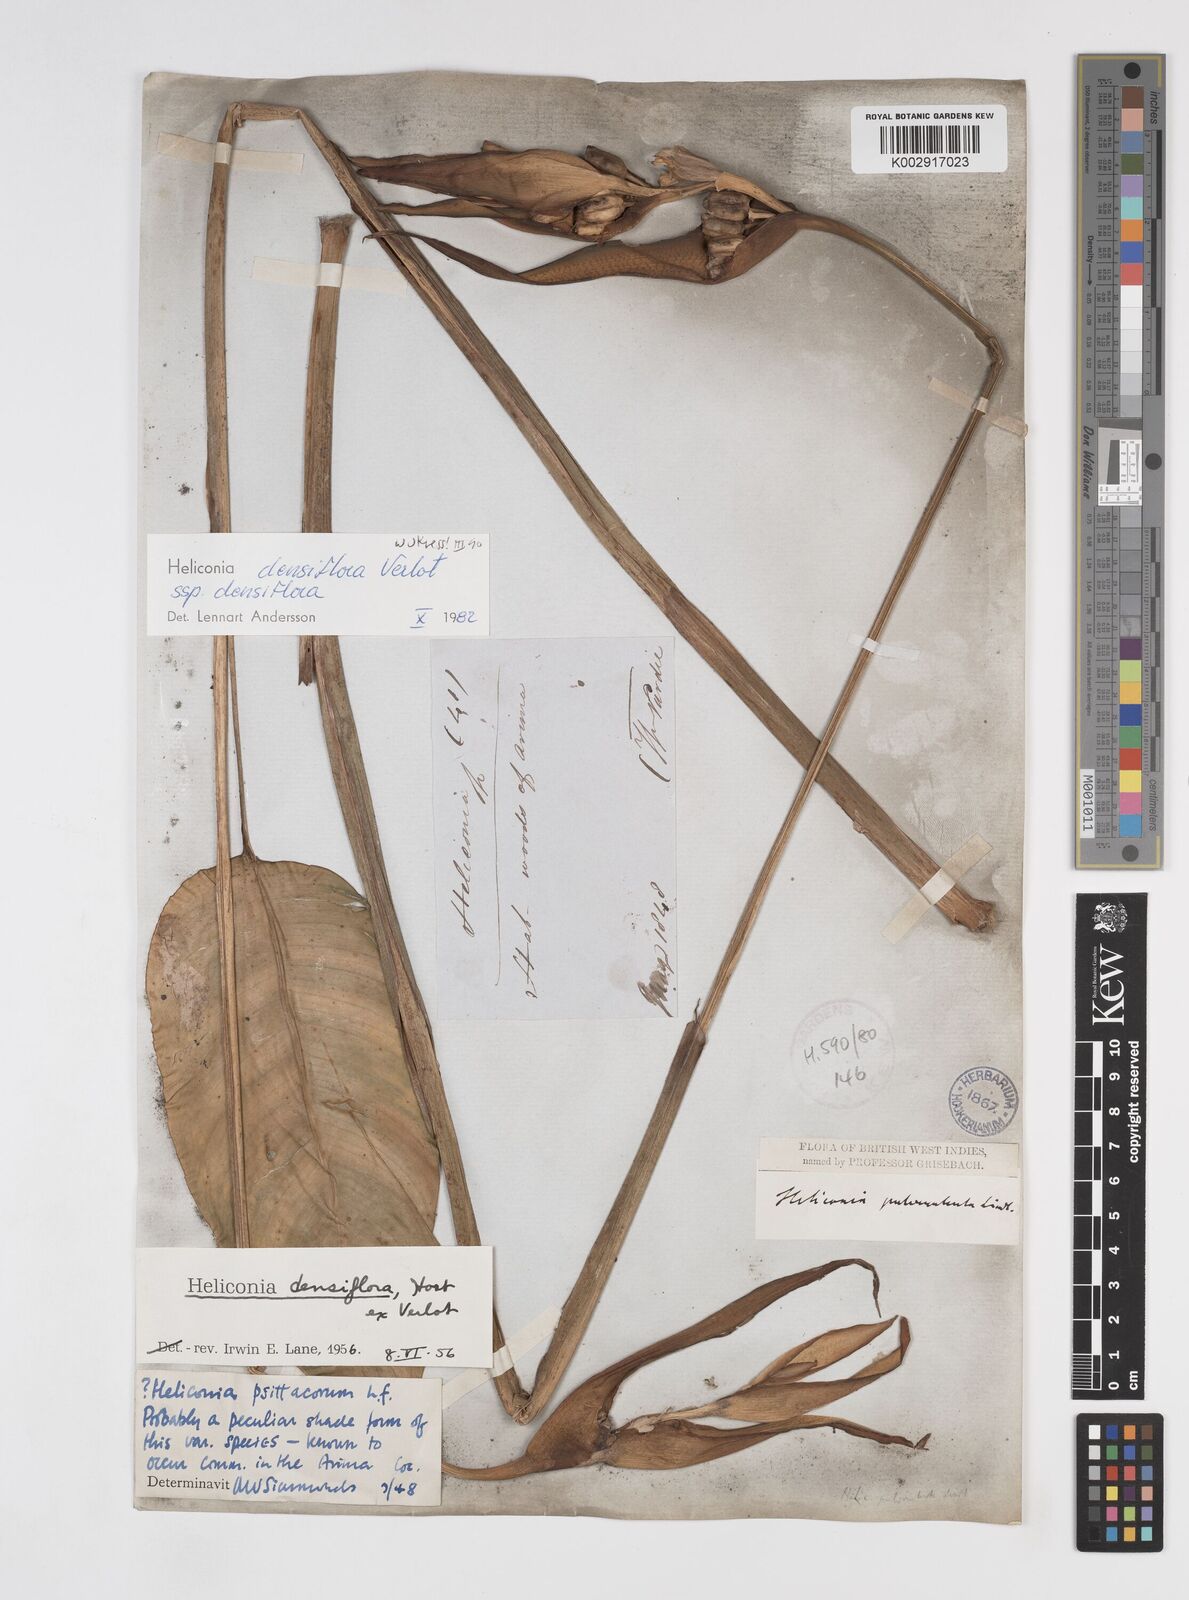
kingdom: Plantae
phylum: Tracheophyta
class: Liliopsida
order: Zingiberales
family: Heliconiaceae
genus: Heliconia
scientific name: Heliconia densiflora
